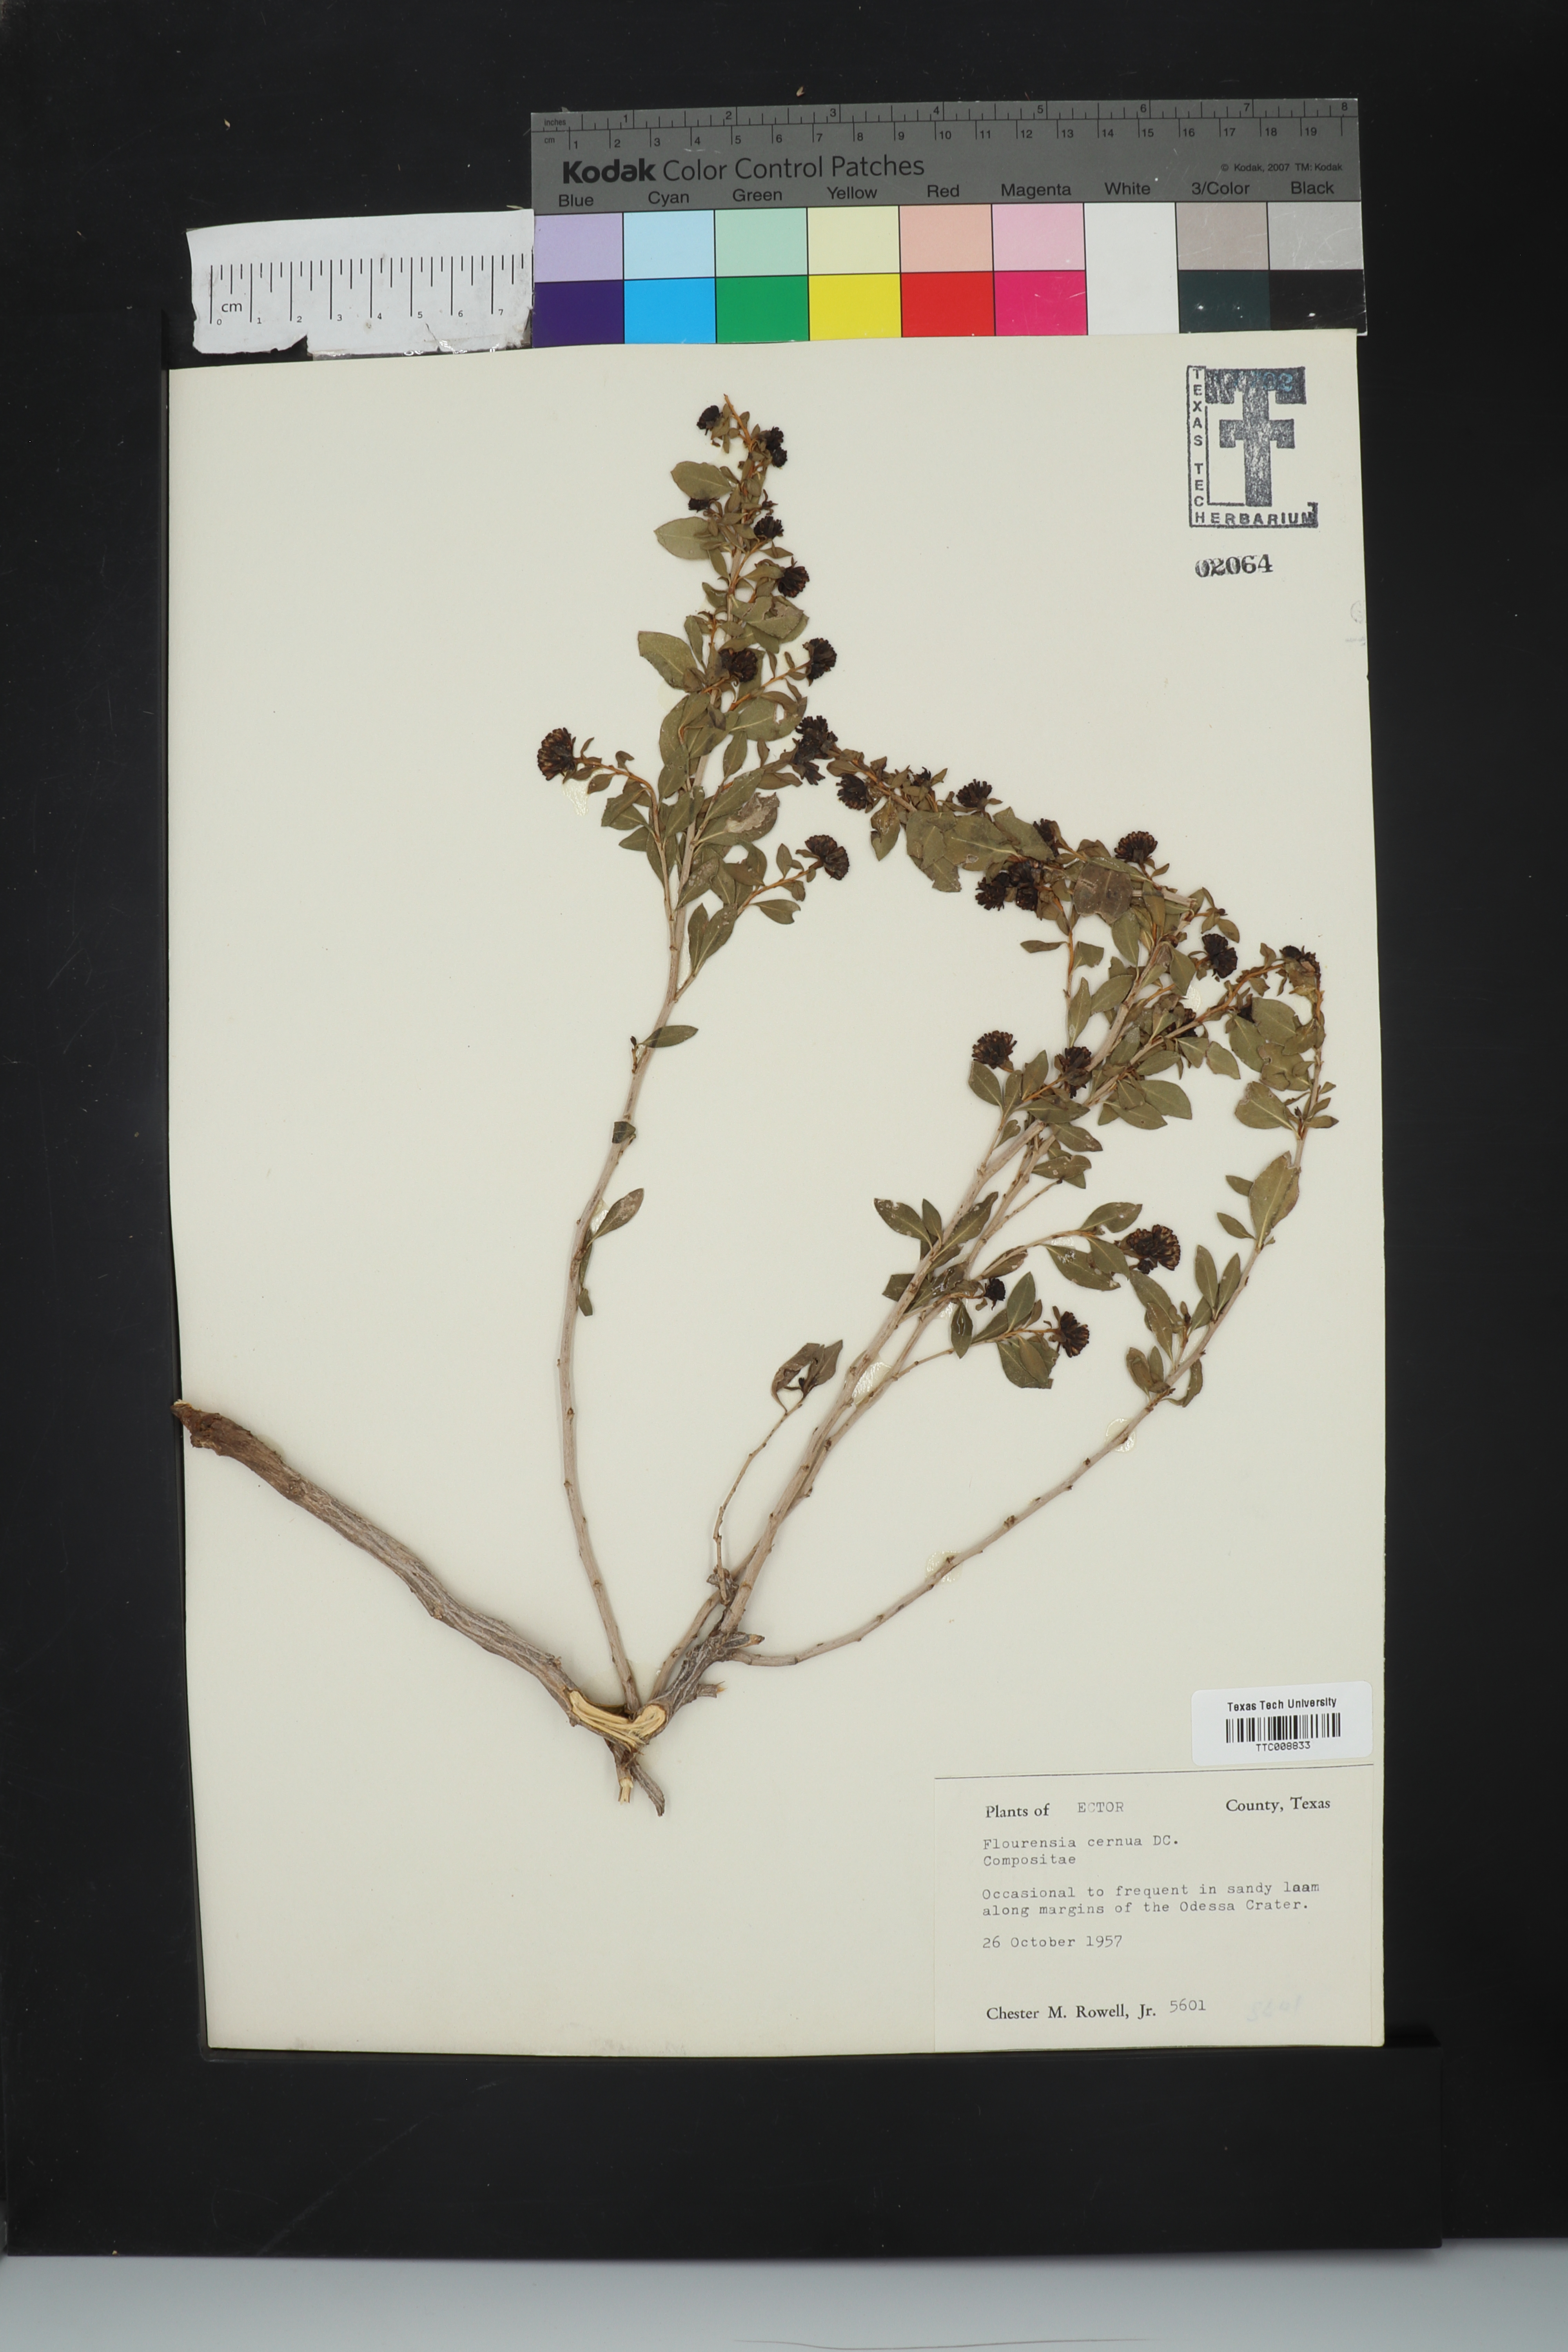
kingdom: Plantae
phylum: Tracheophyta
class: Magnoliopsida
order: Asterales
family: Asteraceae
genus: Flourensia
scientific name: Flourensia cernua
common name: Varnishbush
